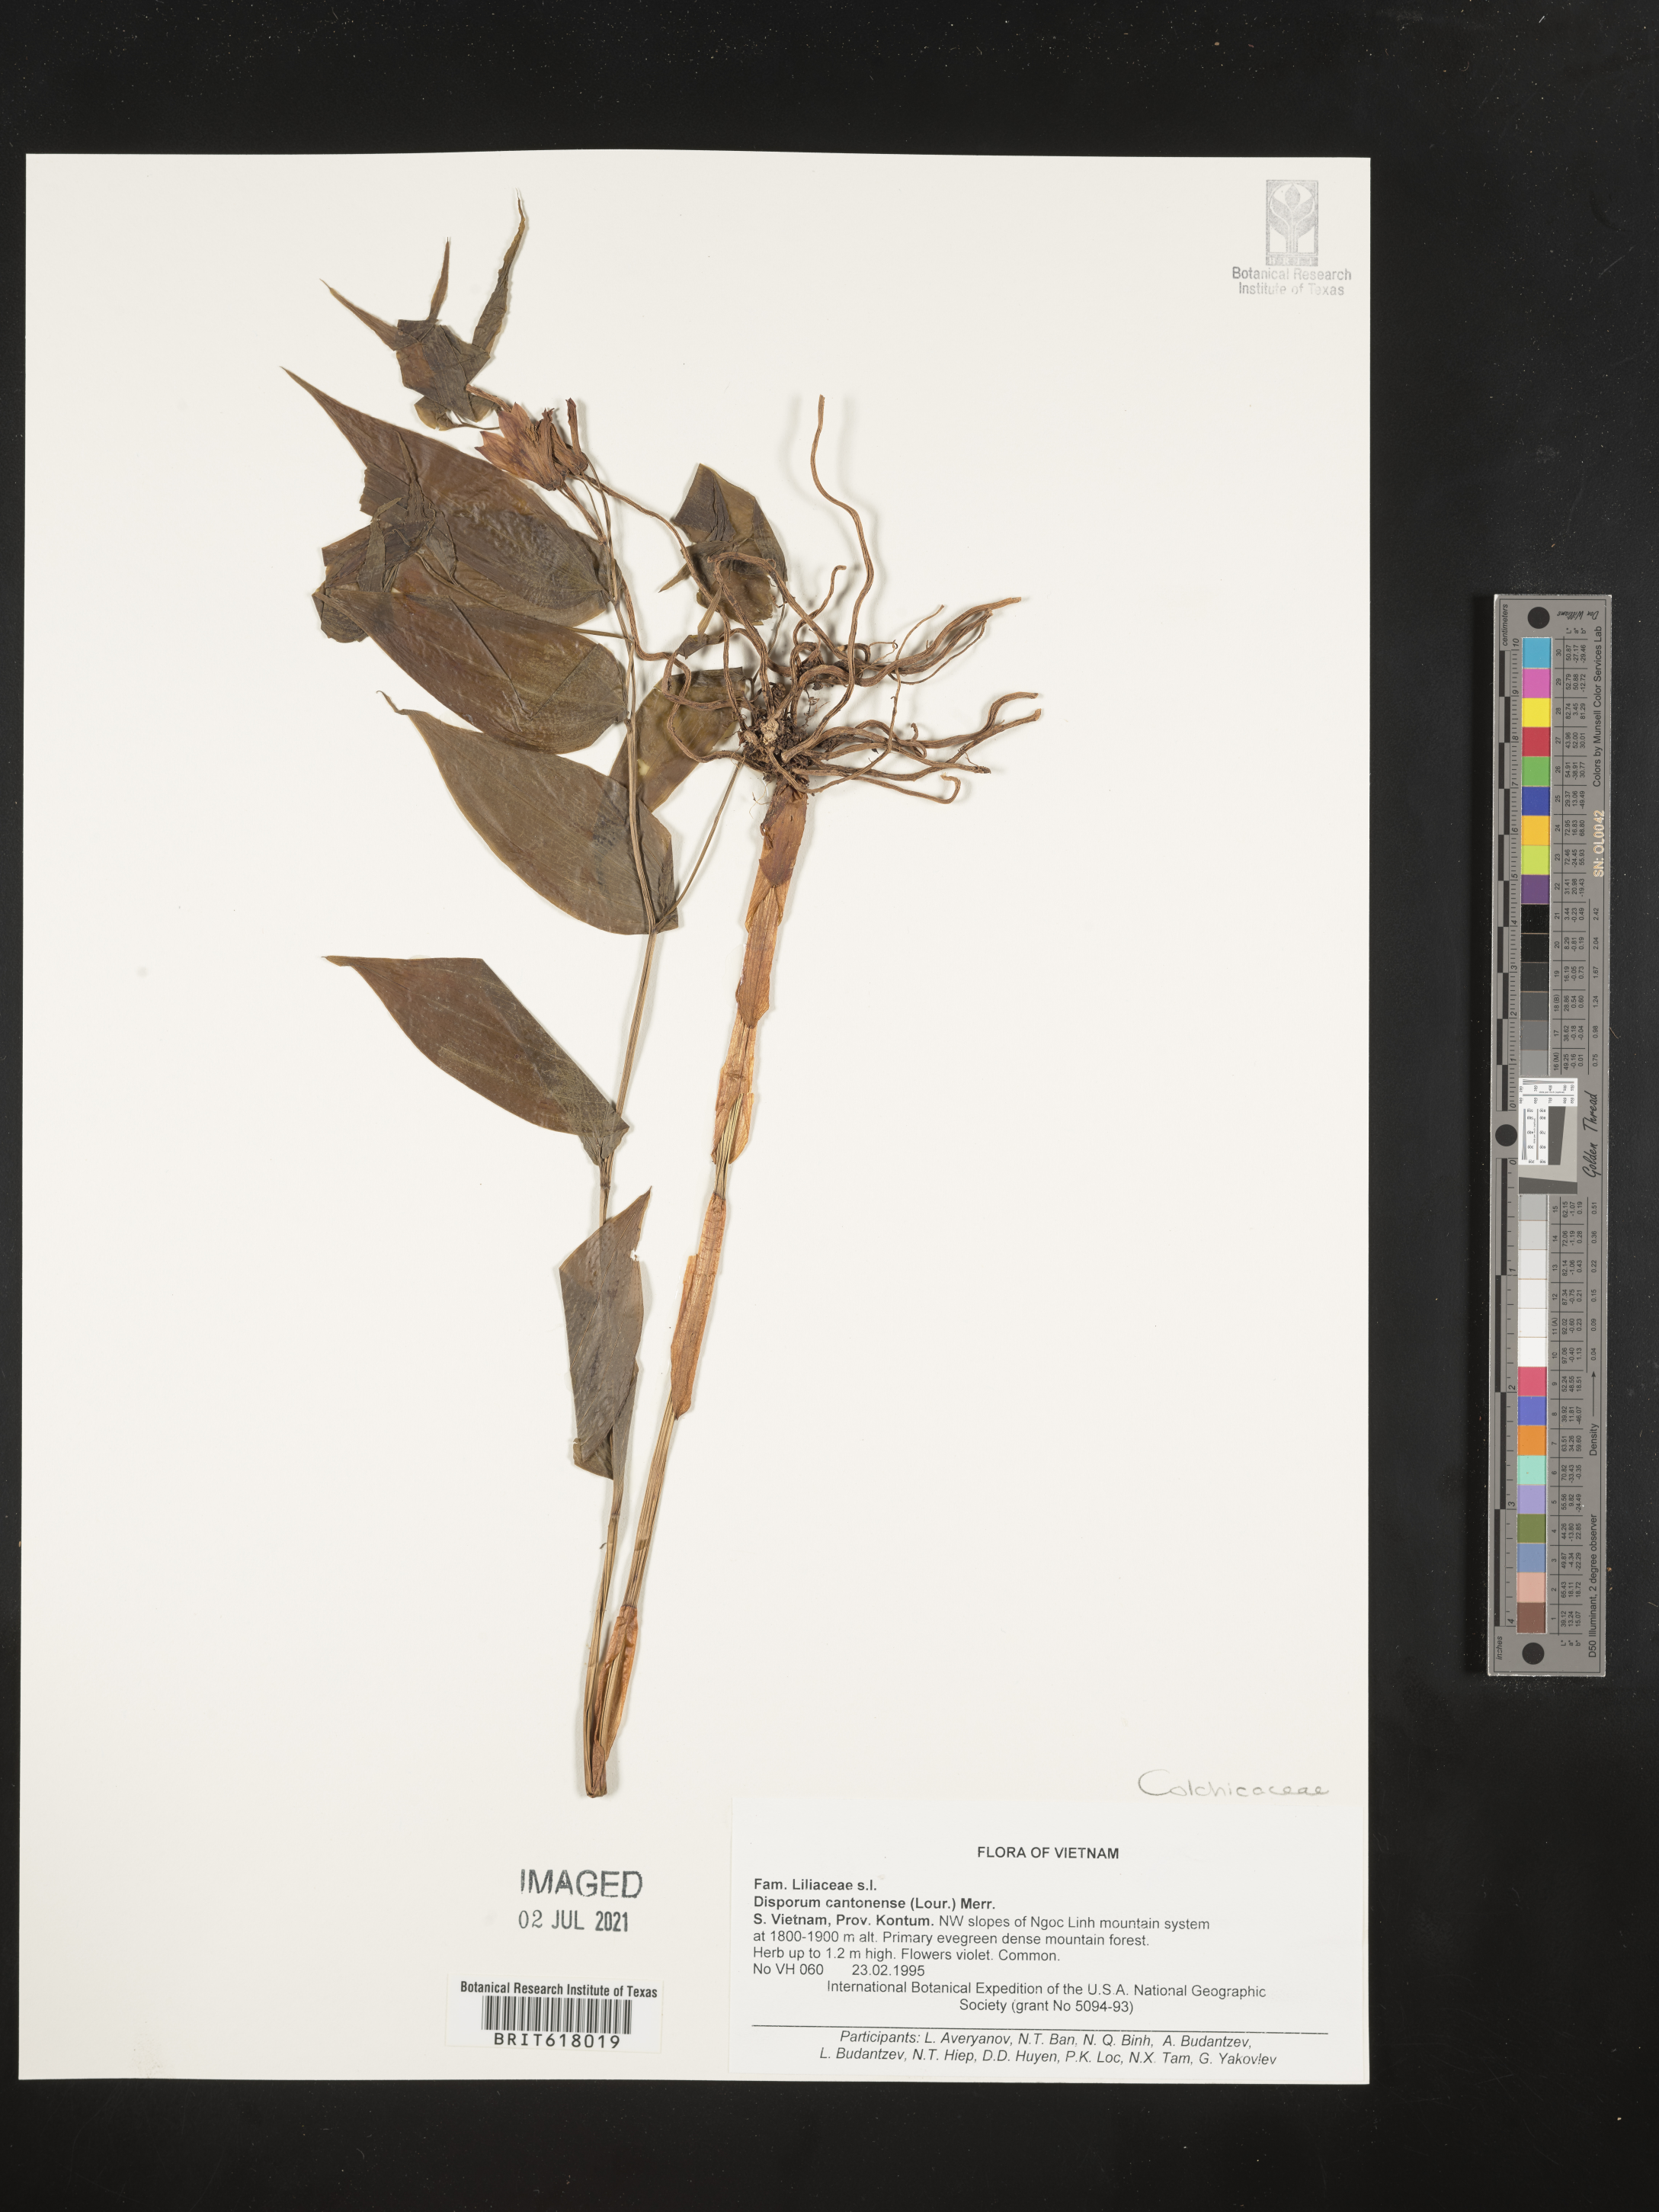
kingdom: Plantae
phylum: Tracheophyta
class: Liliopsida
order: Liliales
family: Colchicaceae
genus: Disporum
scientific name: Disporum cantoniense
